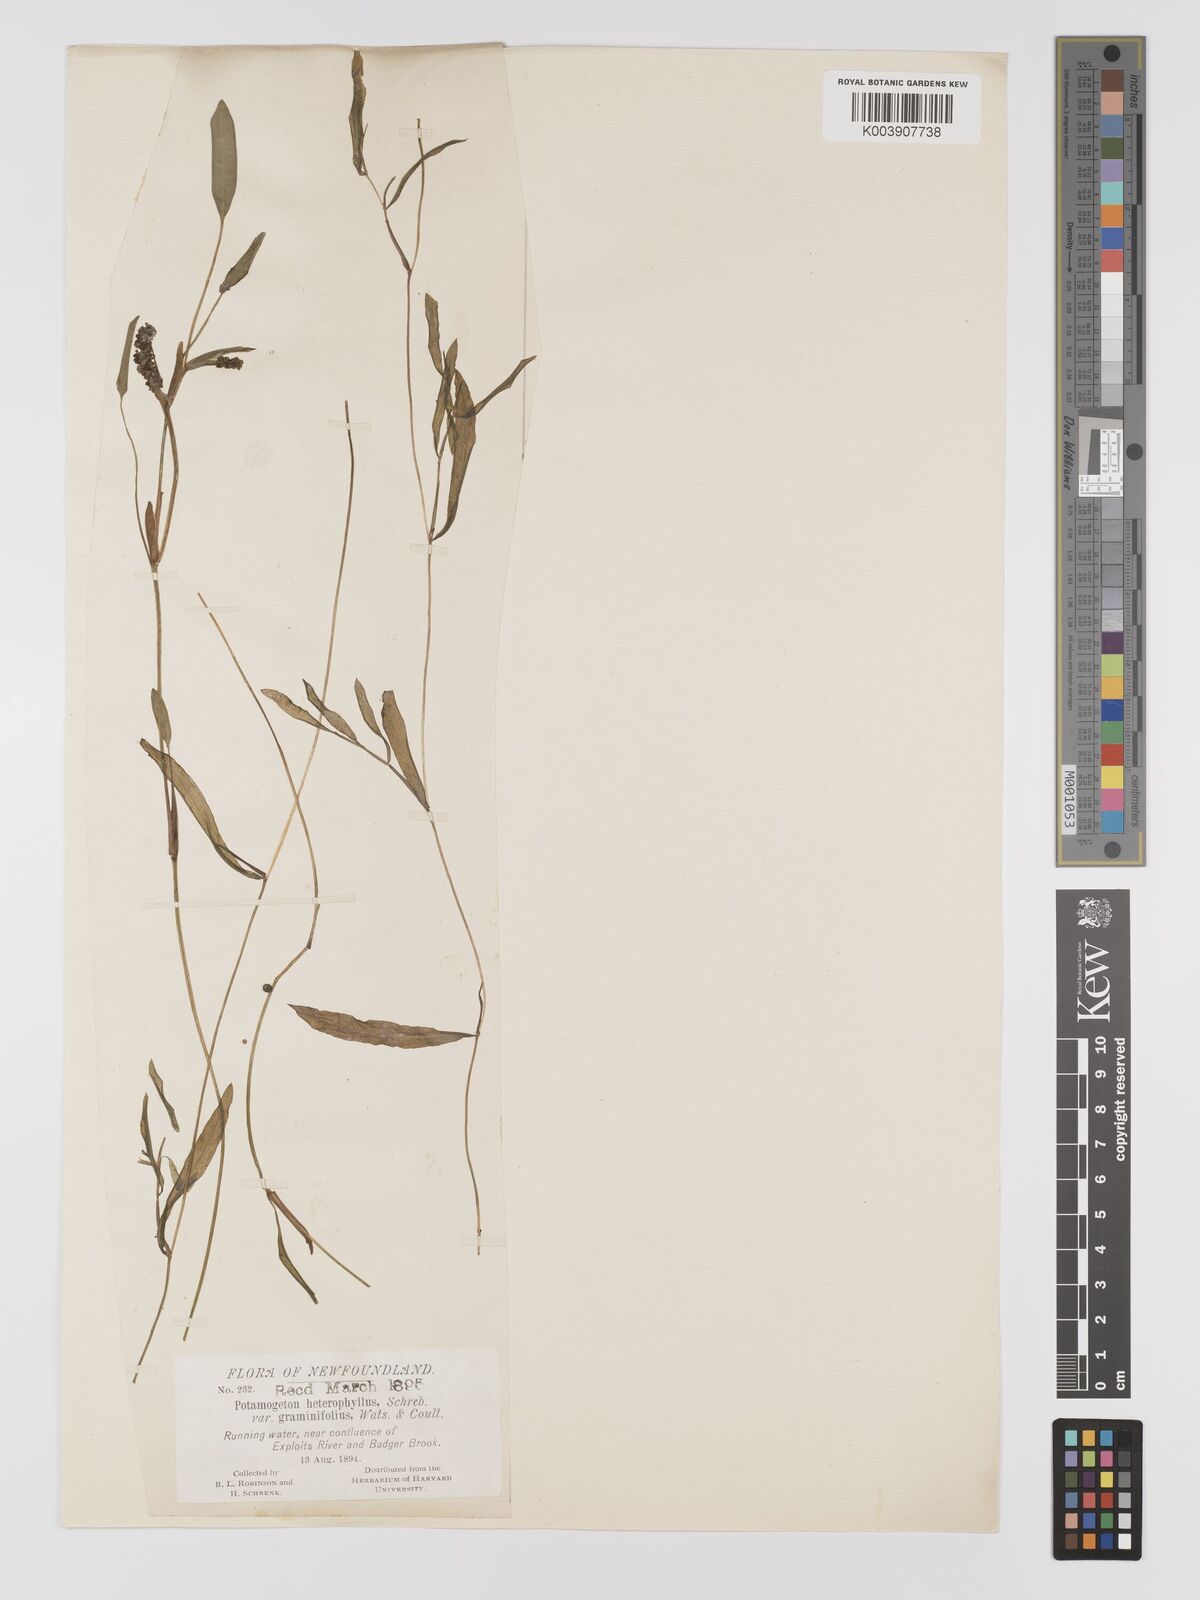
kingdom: Plantae
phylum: Tracheophyta
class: Liliopsida
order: Alismatales
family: Potamogetonaceae
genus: Potamogeton
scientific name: Potamogeton gramineus
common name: Various-leaved pondweed
